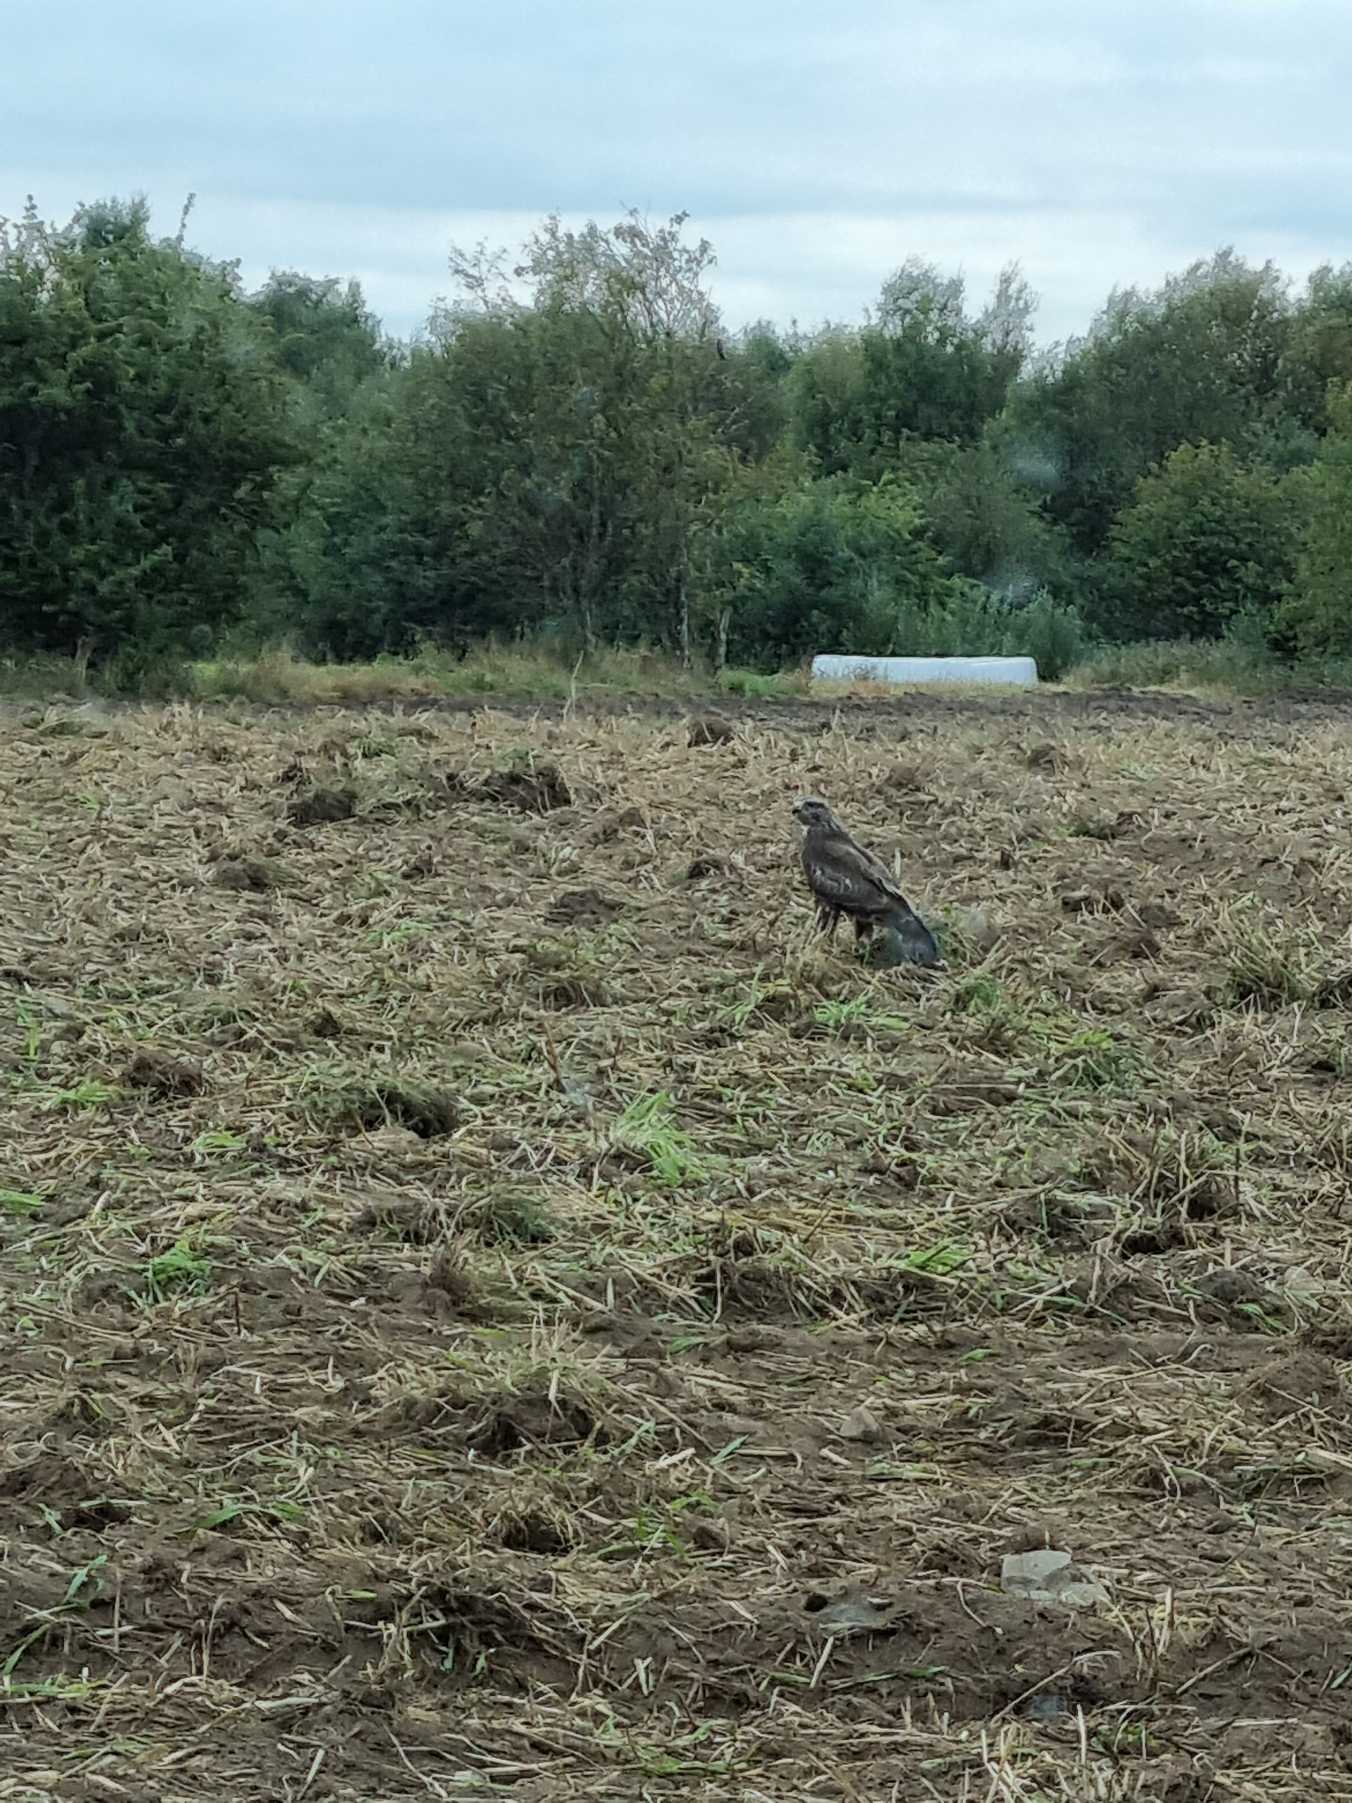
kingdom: Animalia
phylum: Chordata
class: Aves
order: Accipitriformes
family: Accipitridae
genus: Buteo
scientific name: Buteo buteo
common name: Musvåge
